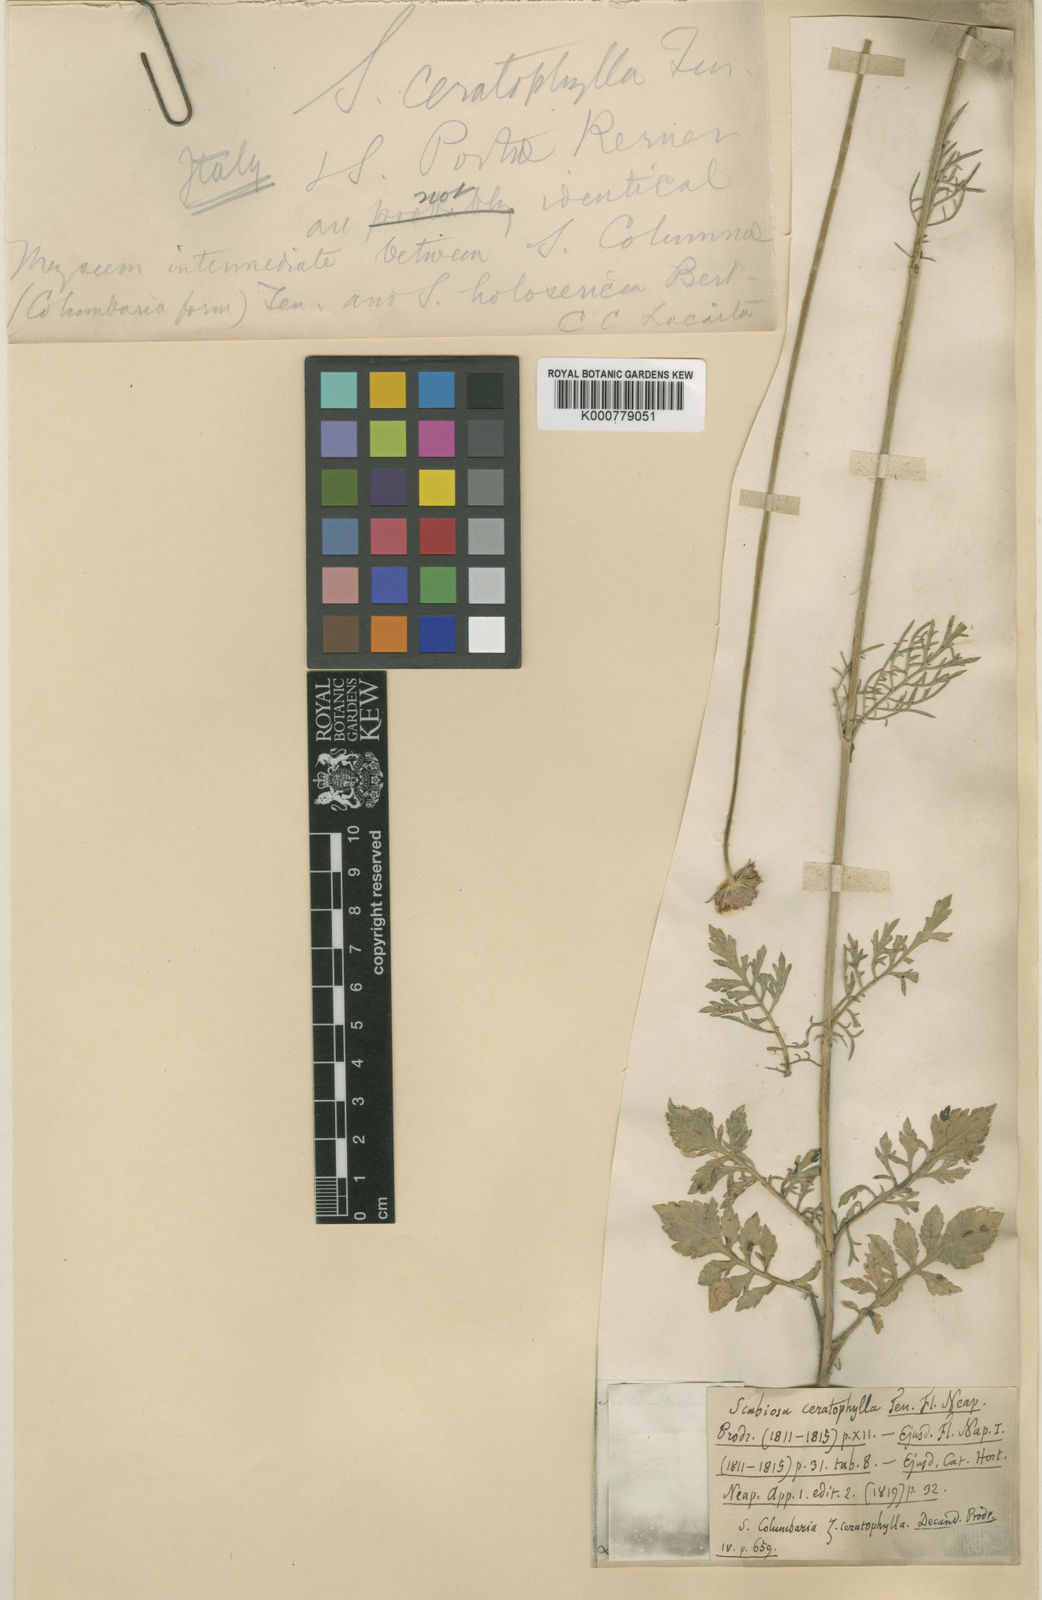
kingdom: Plantae
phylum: Tracheophyta
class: Magnoliopsida
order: Dipsacales
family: Caprifoliaceae
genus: Scabiosa
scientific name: Scabiosa columbaria
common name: Small scabious
